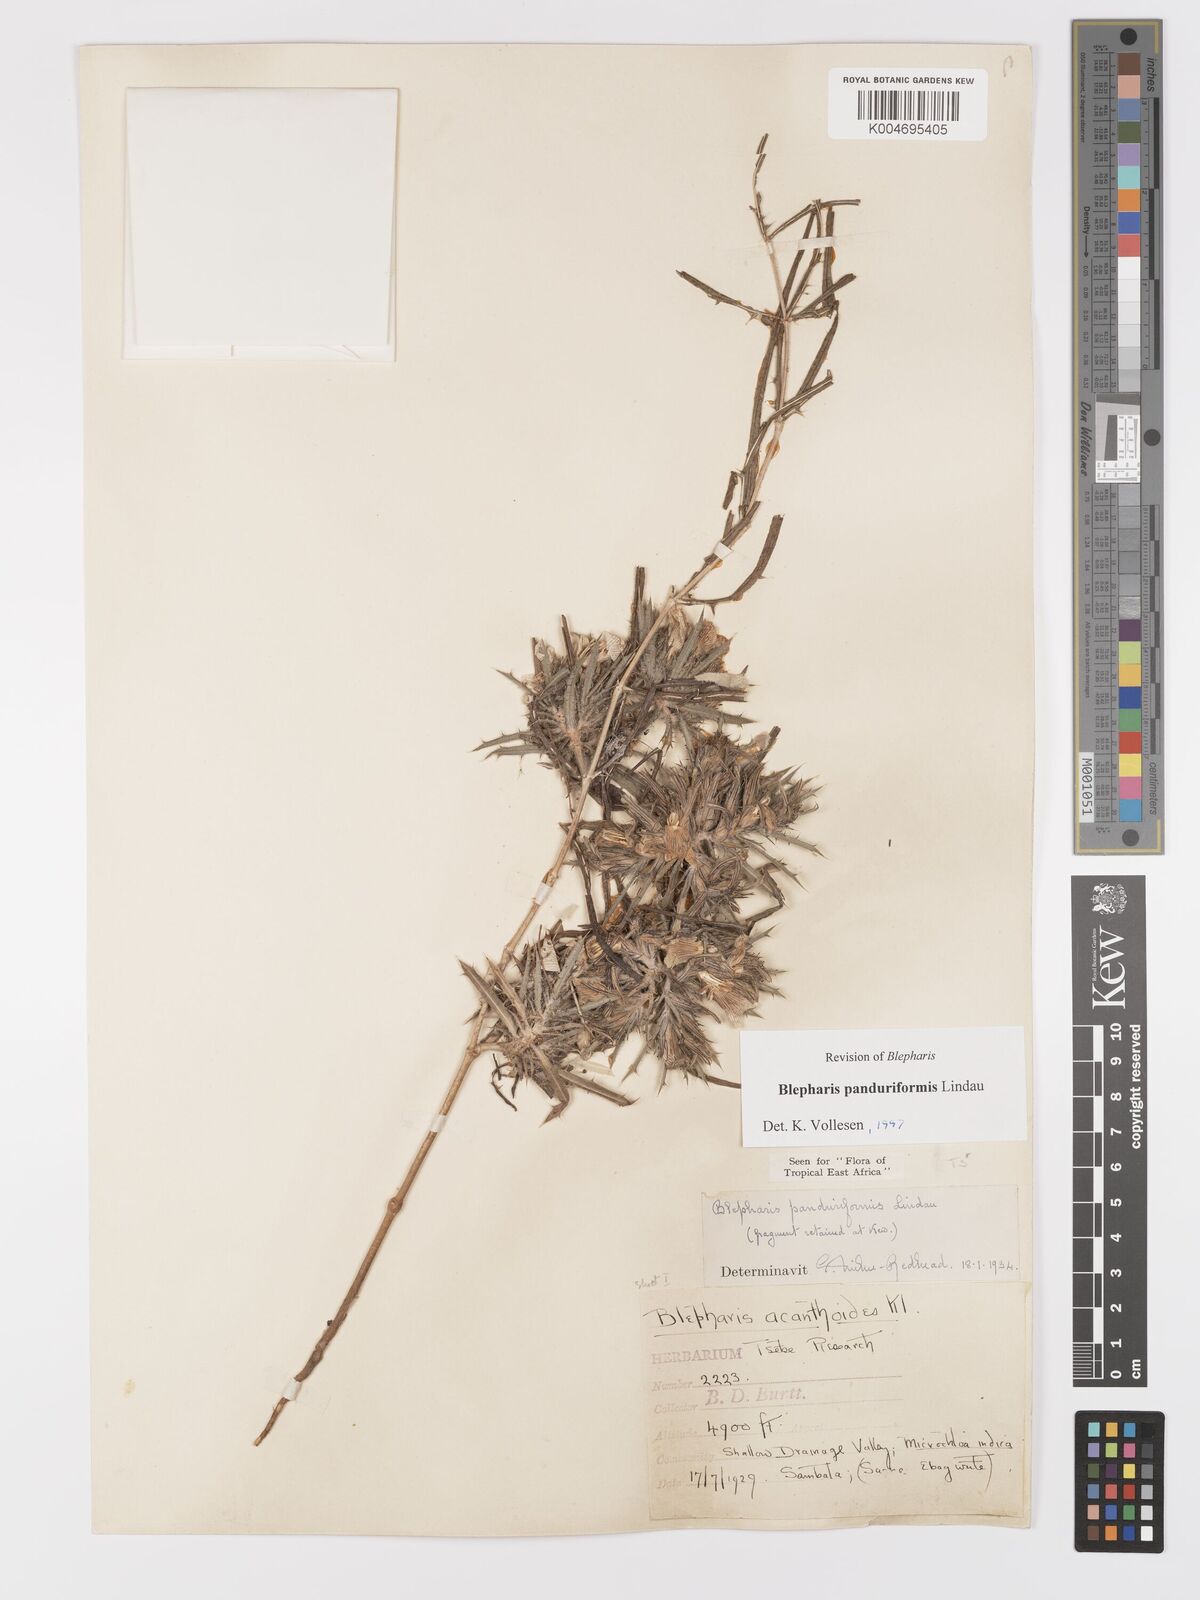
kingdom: Plantae
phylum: Tracheophyta
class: Magnoliopsida
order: Lamiales
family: Acanthaceae
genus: Blepharis
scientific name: Blepharis panduriformis
